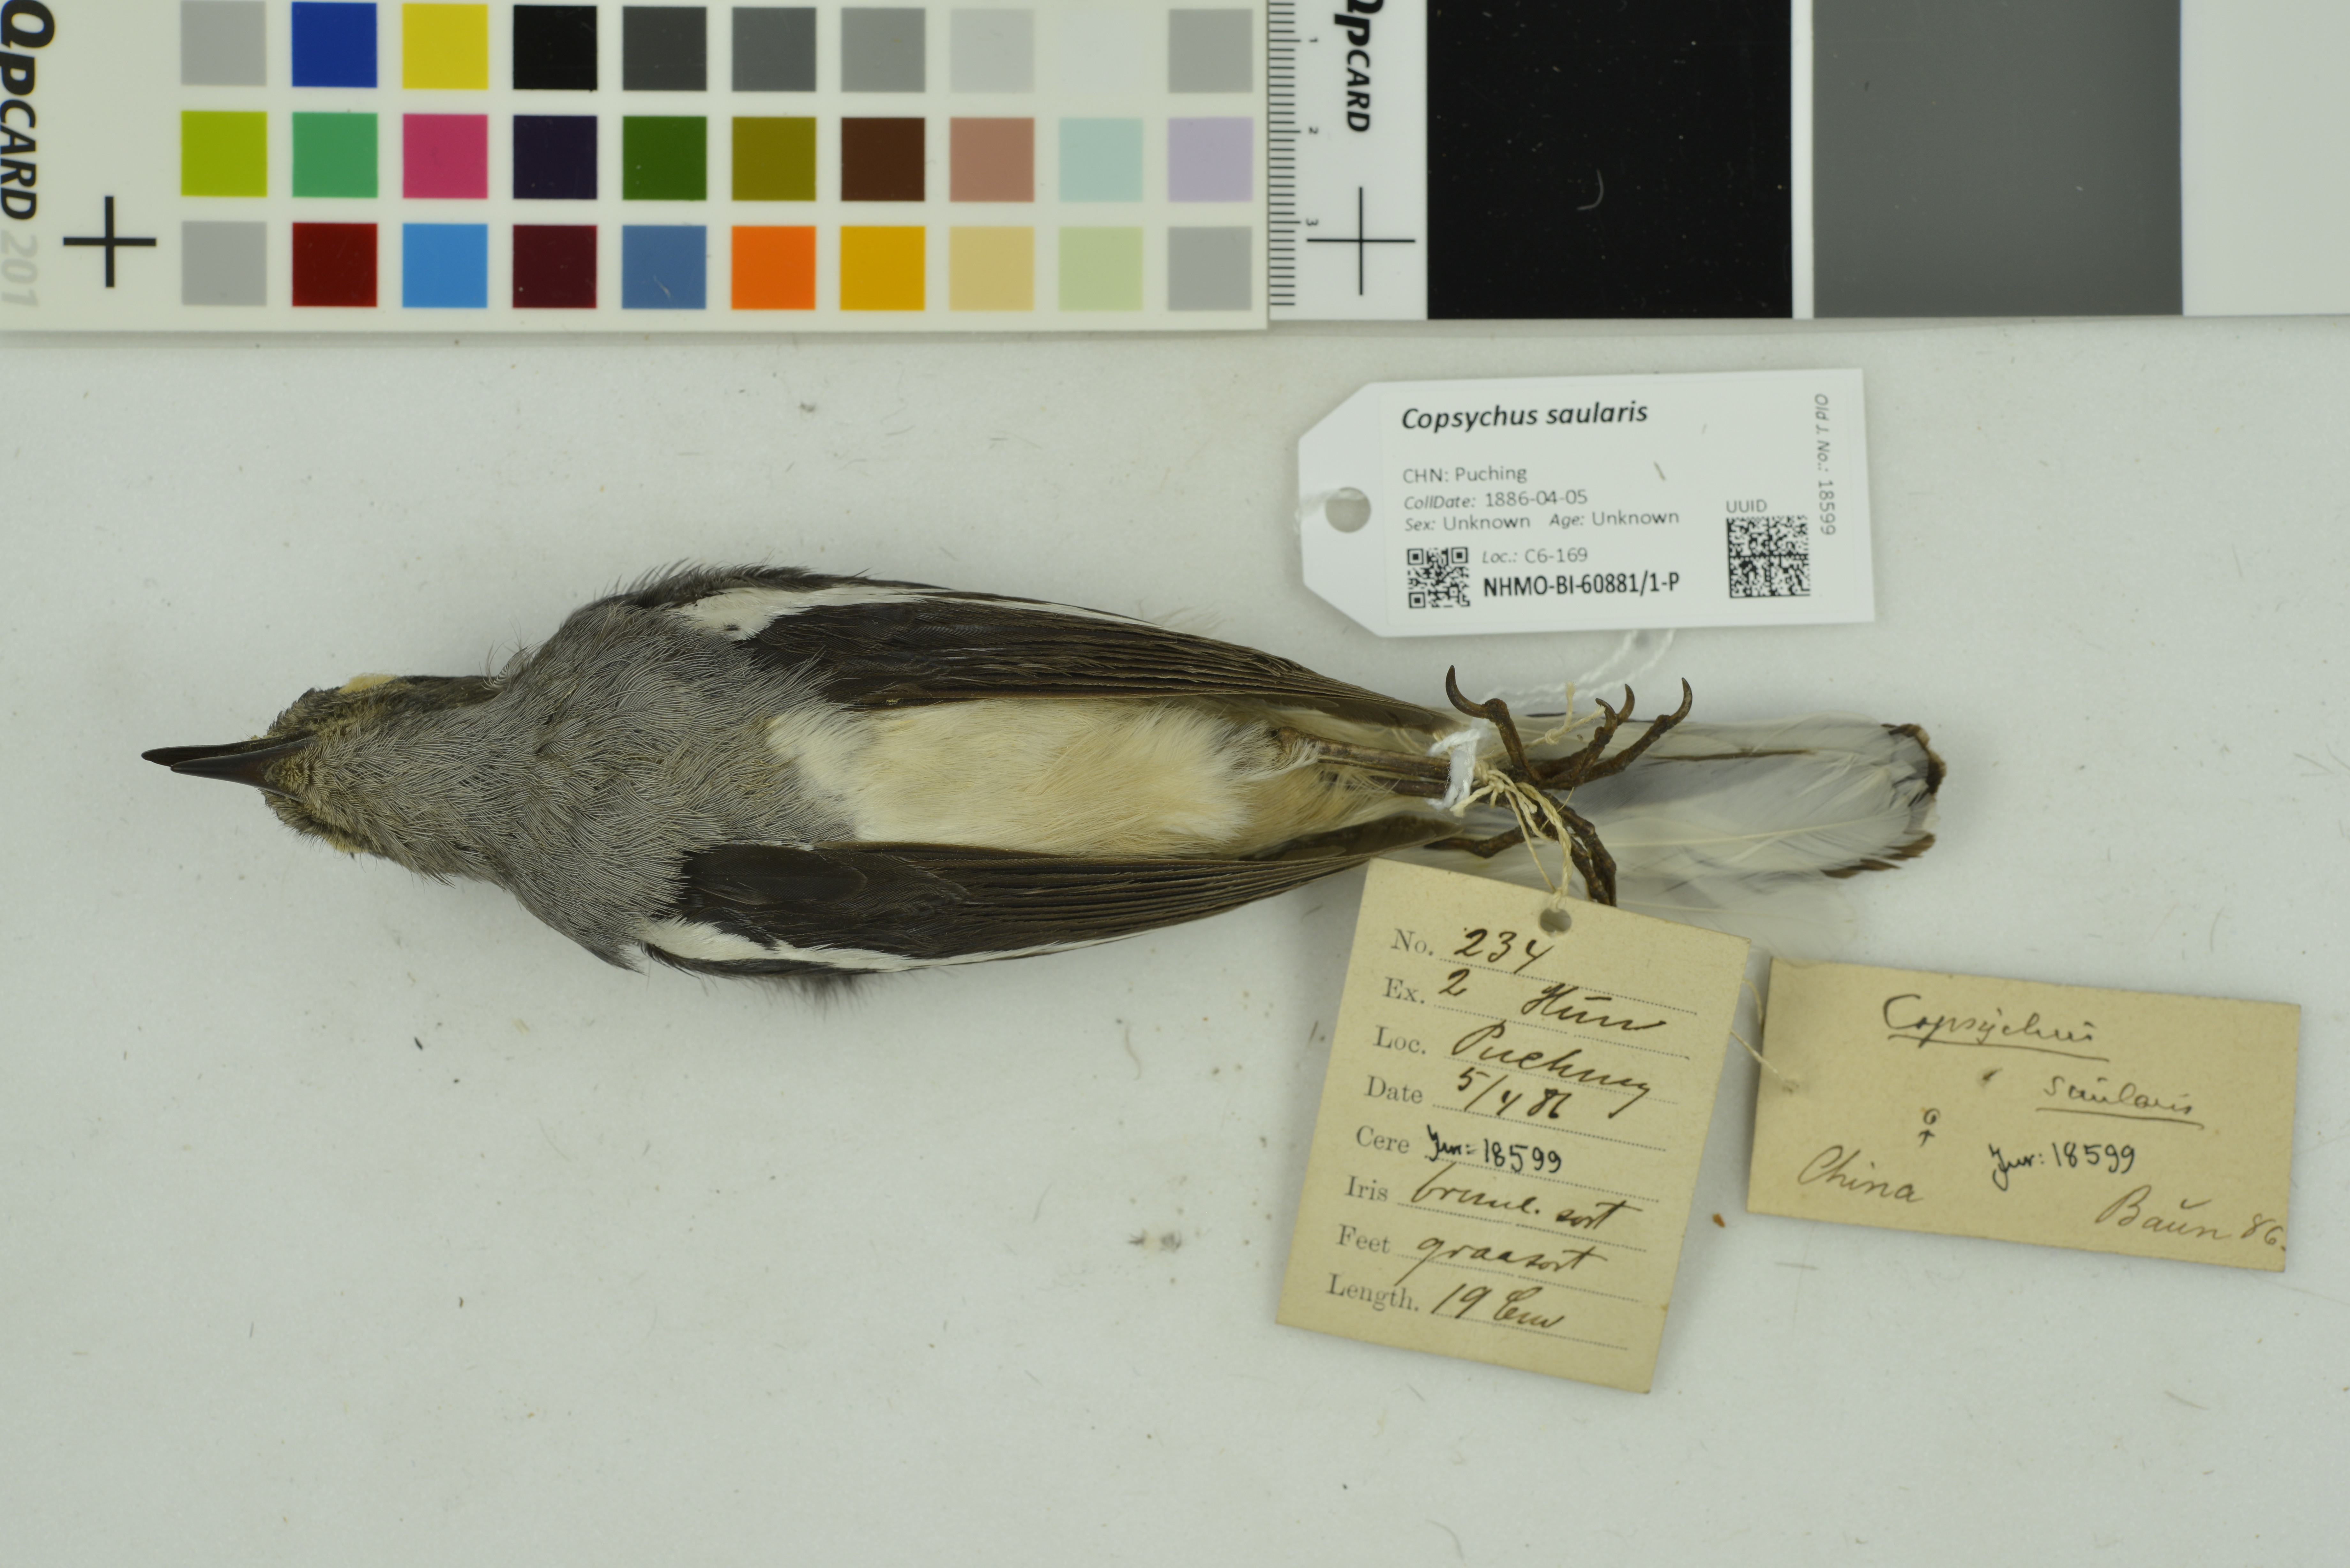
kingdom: Animalia
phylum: Chordata
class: Aves
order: Passeriformes
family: Muscicapidae
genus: Copsychus
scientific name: Copsychus saularis
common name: Oriental magpie-robin
